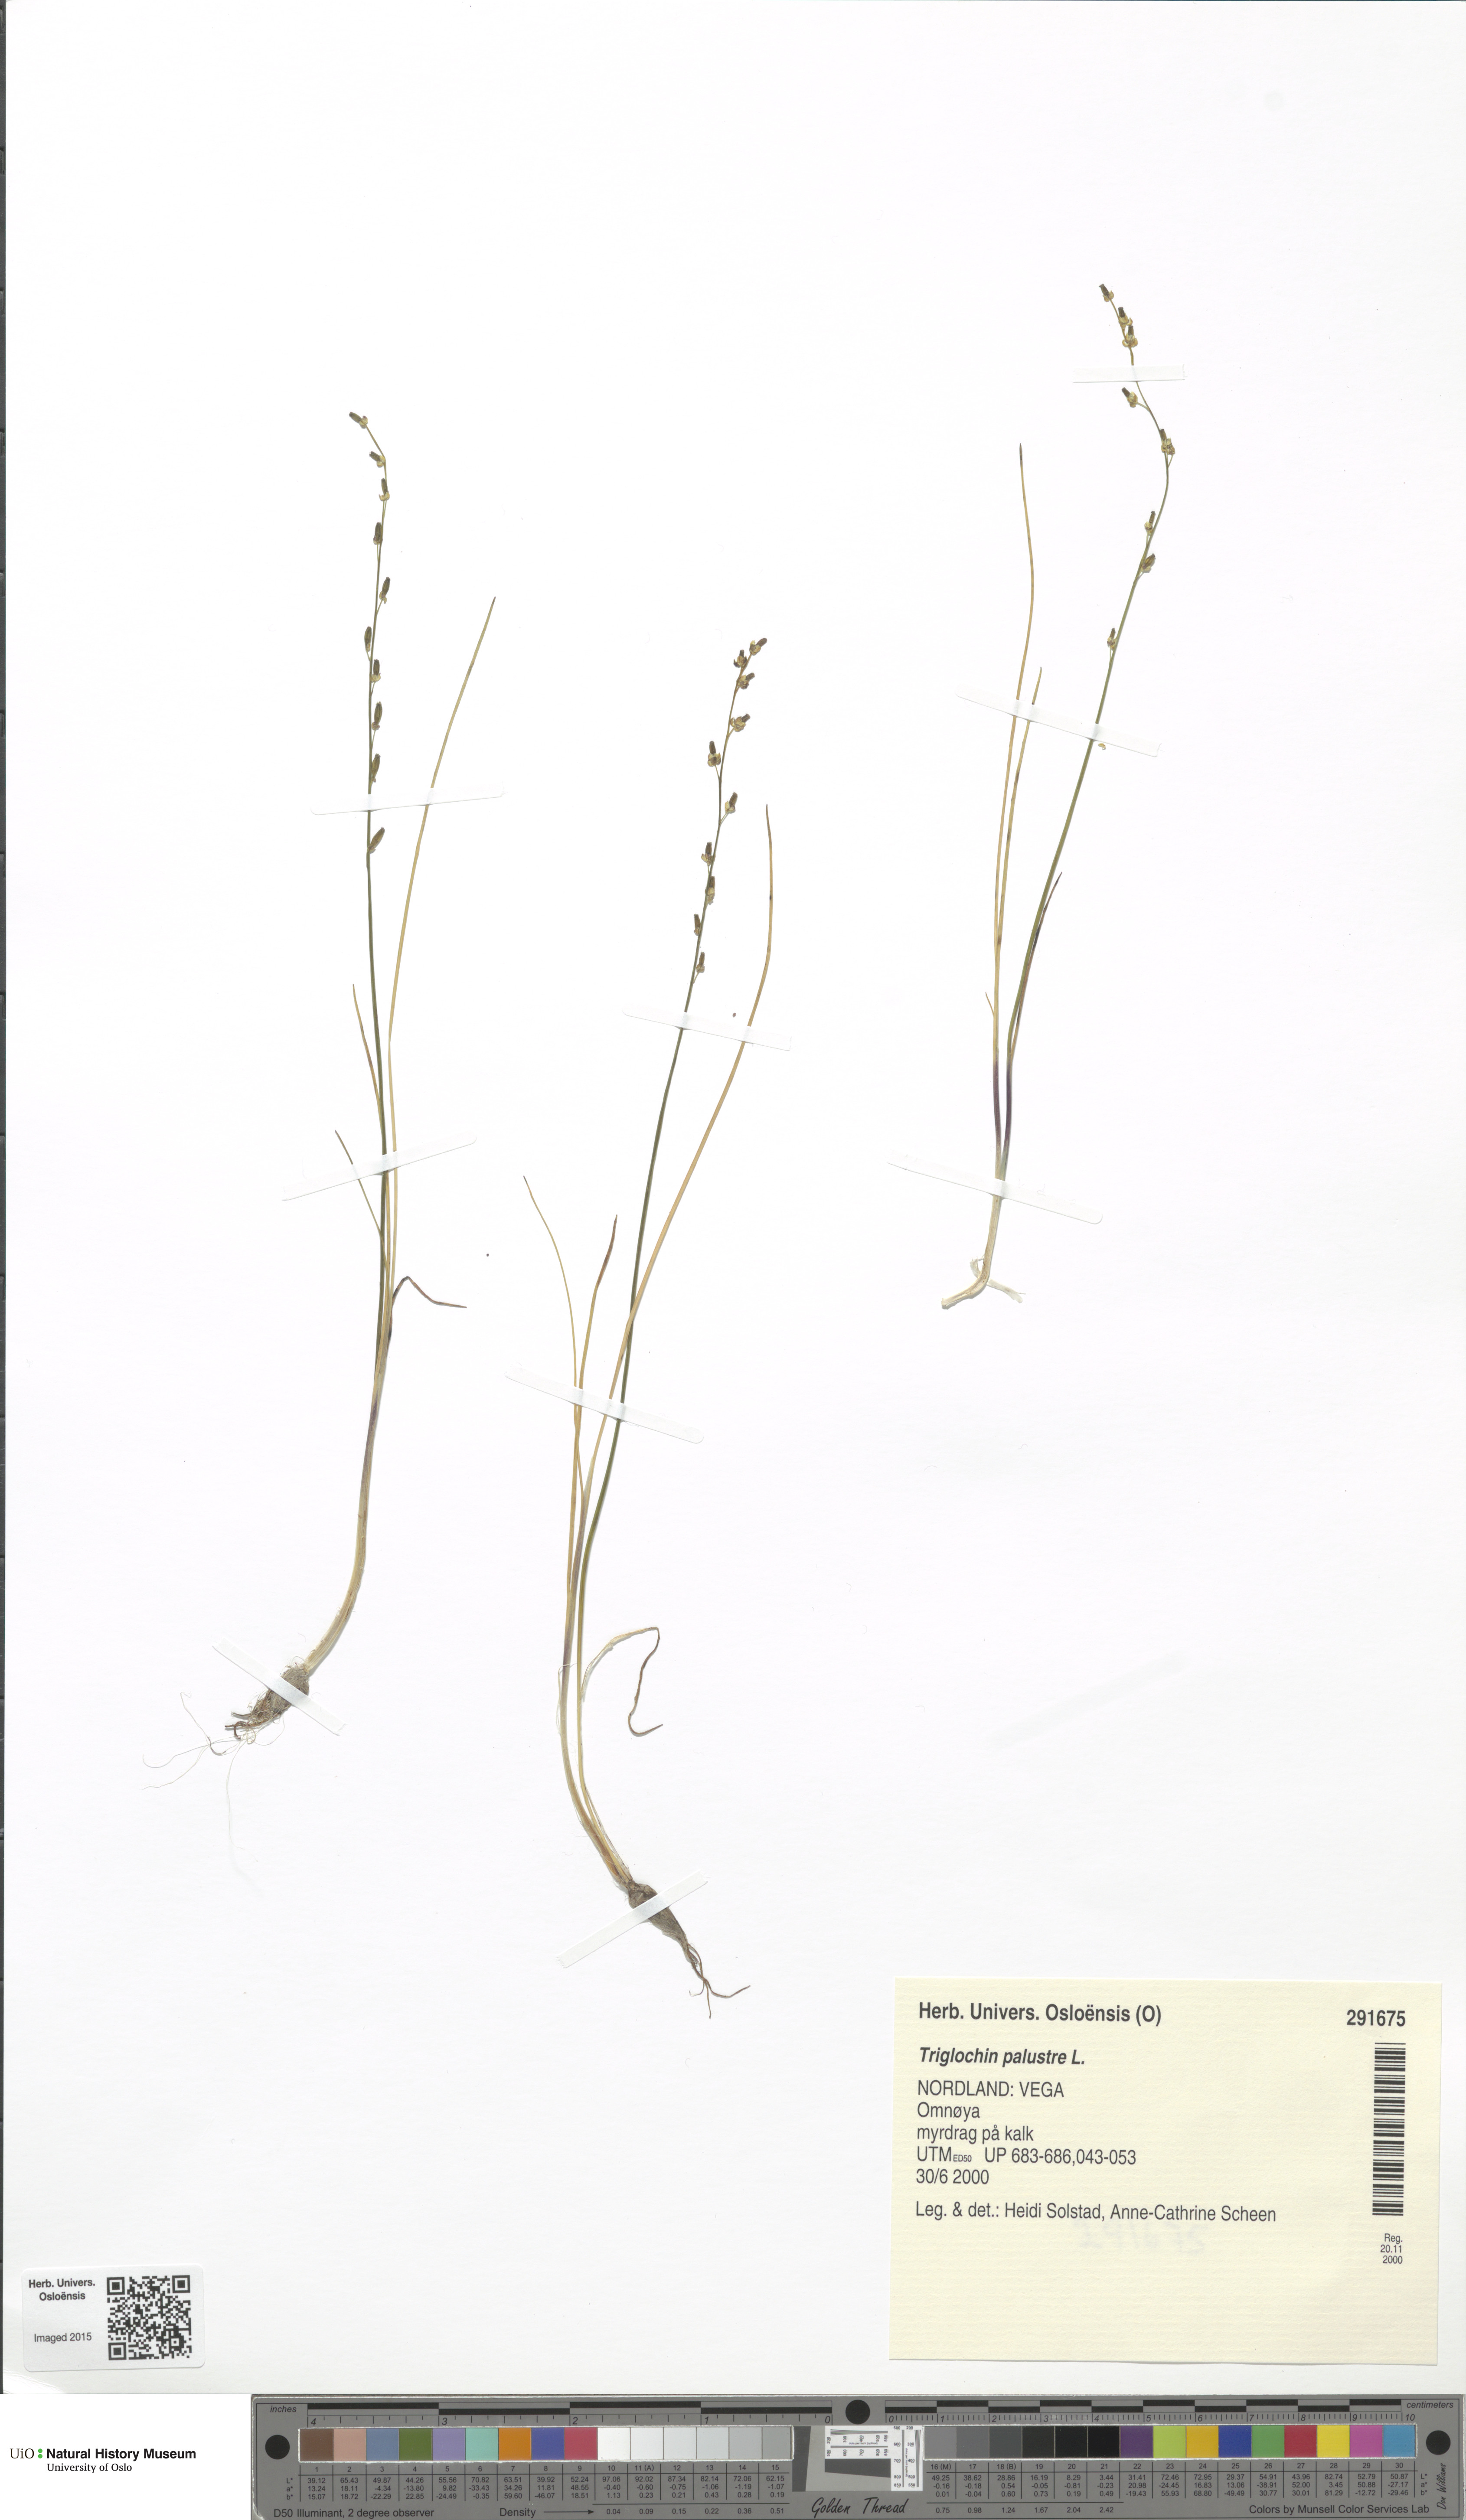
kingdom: Plantae
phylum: Tracheophyta
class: Liliopsida
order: Alismatales
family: Juncaginaceae
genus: Triglochin
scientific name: Triglochin palustris
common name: Marsh arrowgrass
